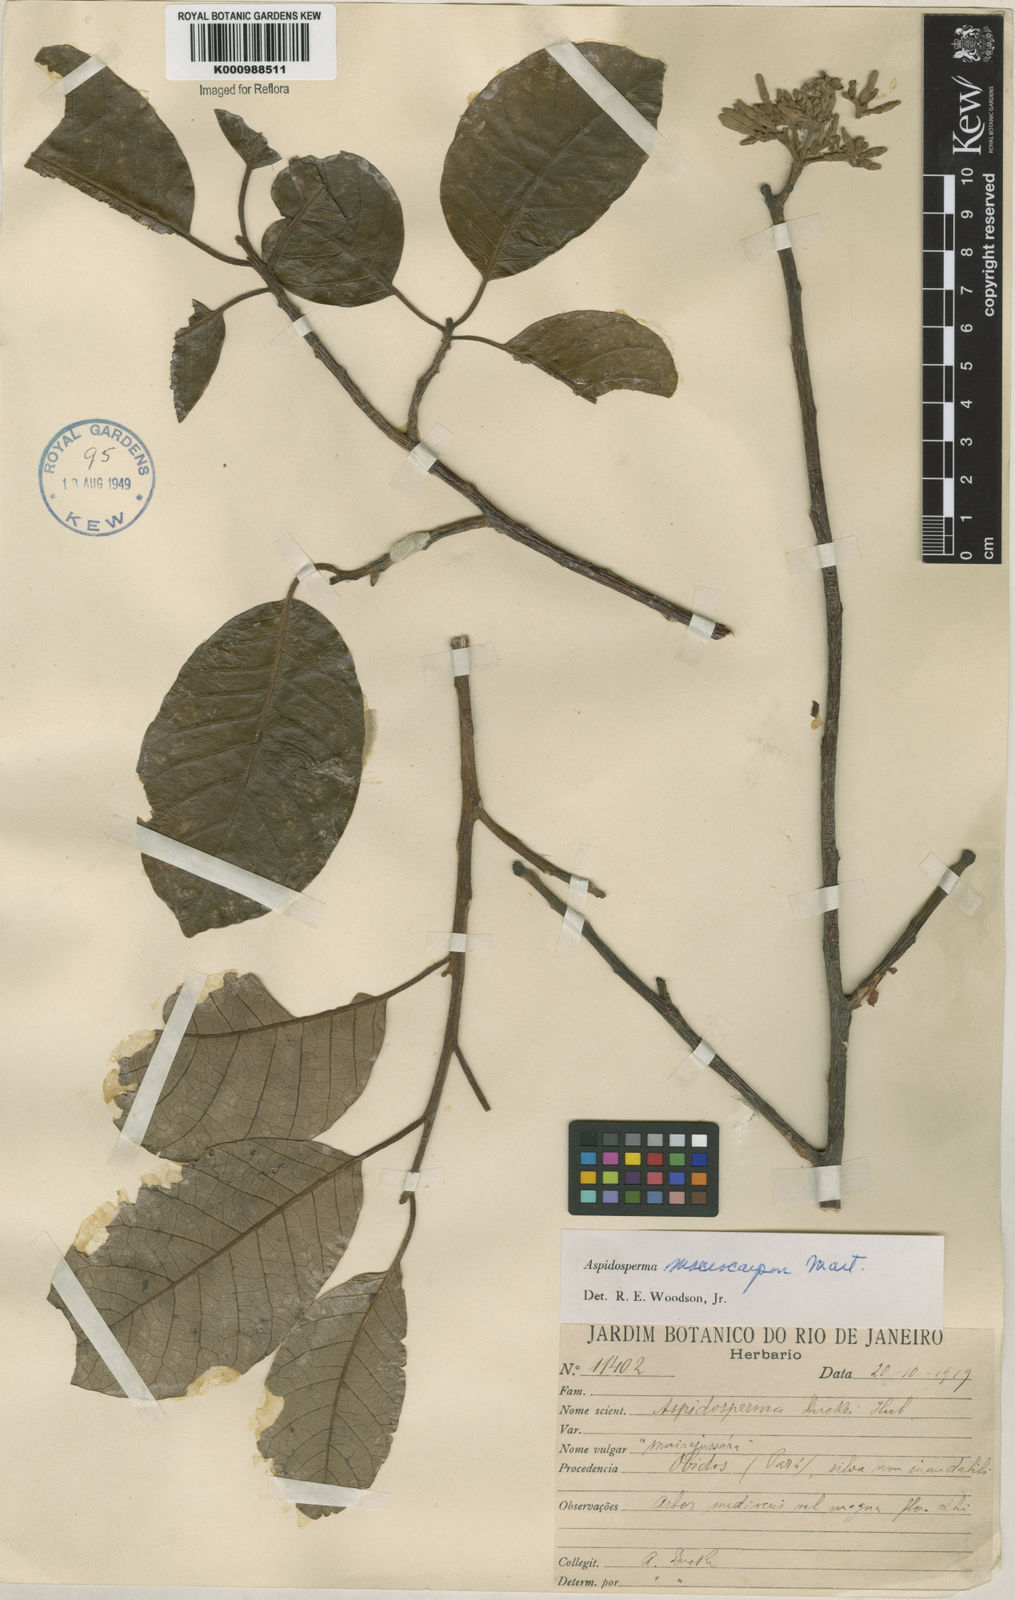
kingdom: Plantae
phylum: Tracheophyta
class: Magnoliopsida
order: Gentianales
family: Apocynaceae
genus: Aspidosperma
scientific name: Aspidosperma macrocarpon
